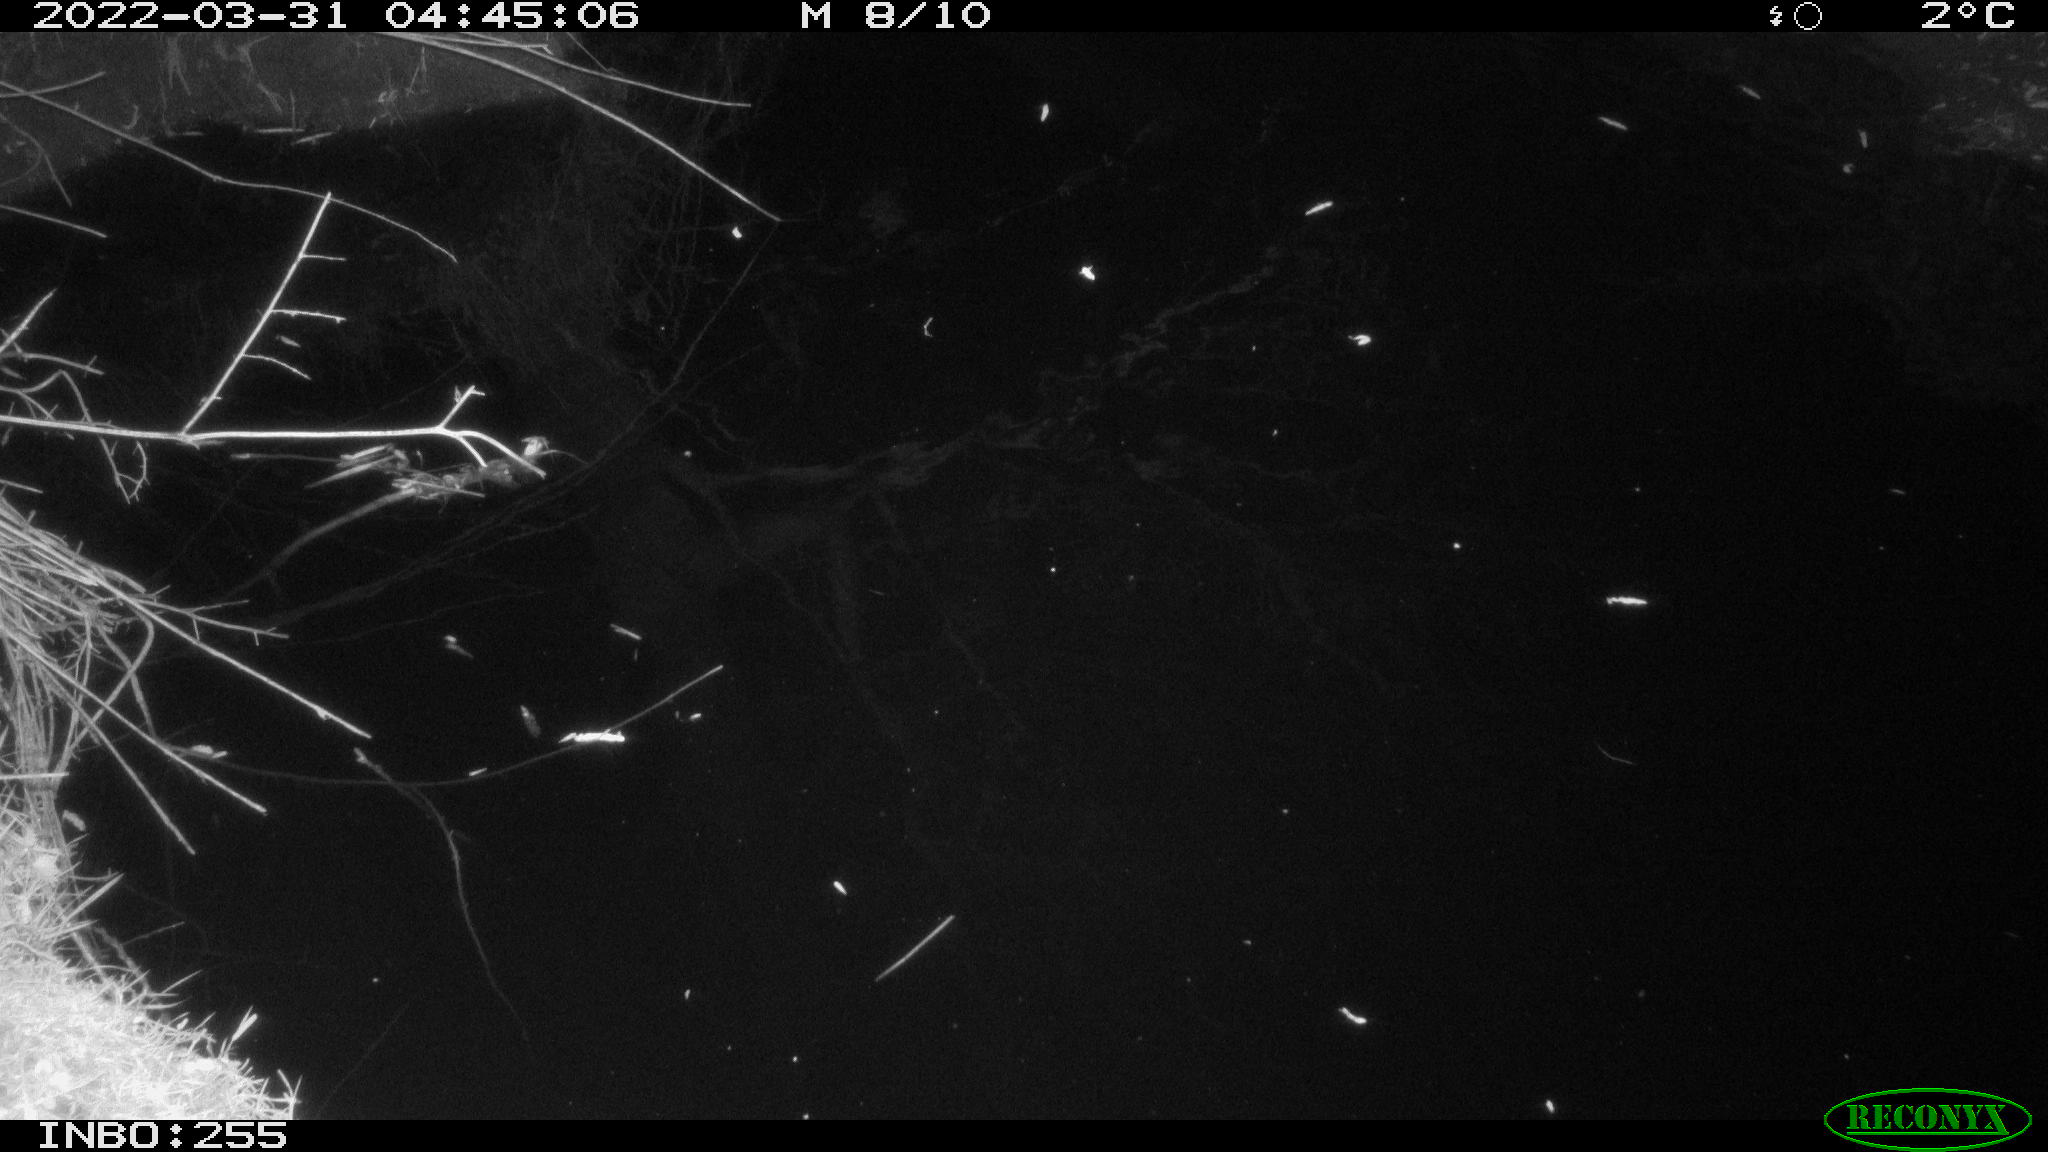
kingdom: Animalia
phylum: Chordata
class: Aves
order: Anseriformes
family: Anatidae
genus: Anas
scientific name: Anas platyrhynchos
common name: Mallard
